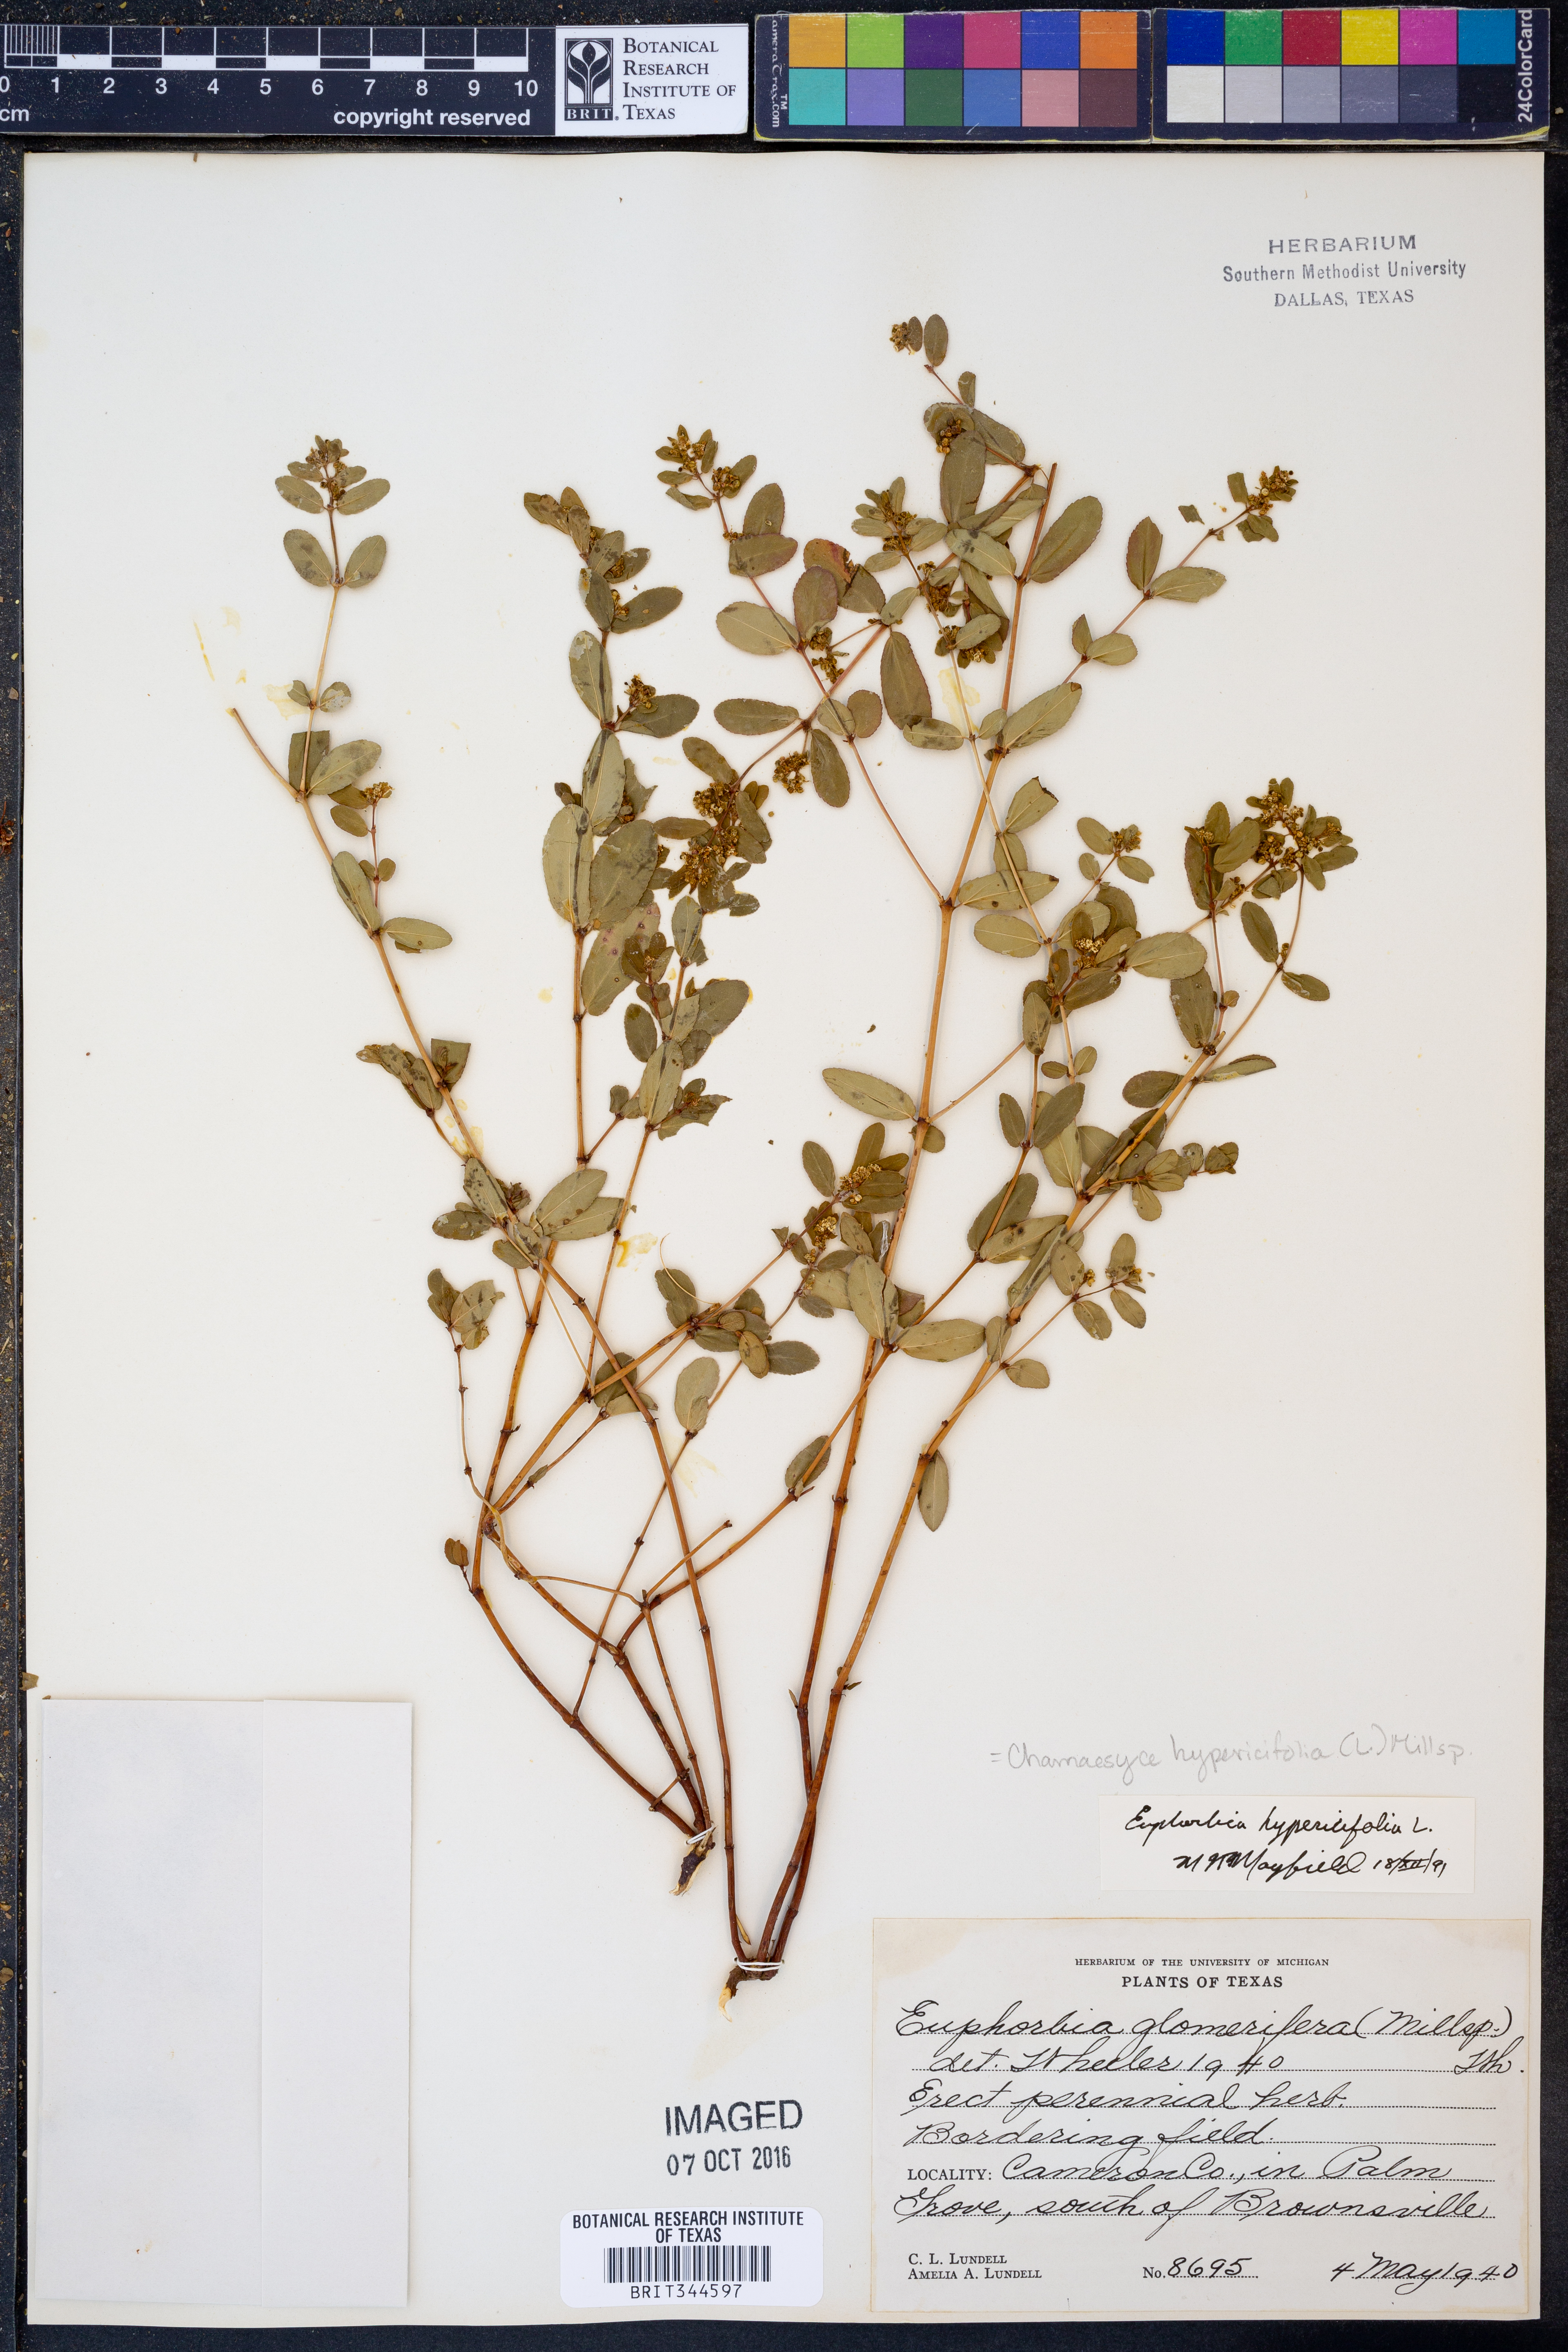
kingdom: Plantae
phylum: Tracheophyta
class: Magnoliopsida
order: Malpighiales
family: Euphorbiaceae
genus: Euphorbia
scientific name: Euphorbia hypericifolia
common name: Graceful sandmat
